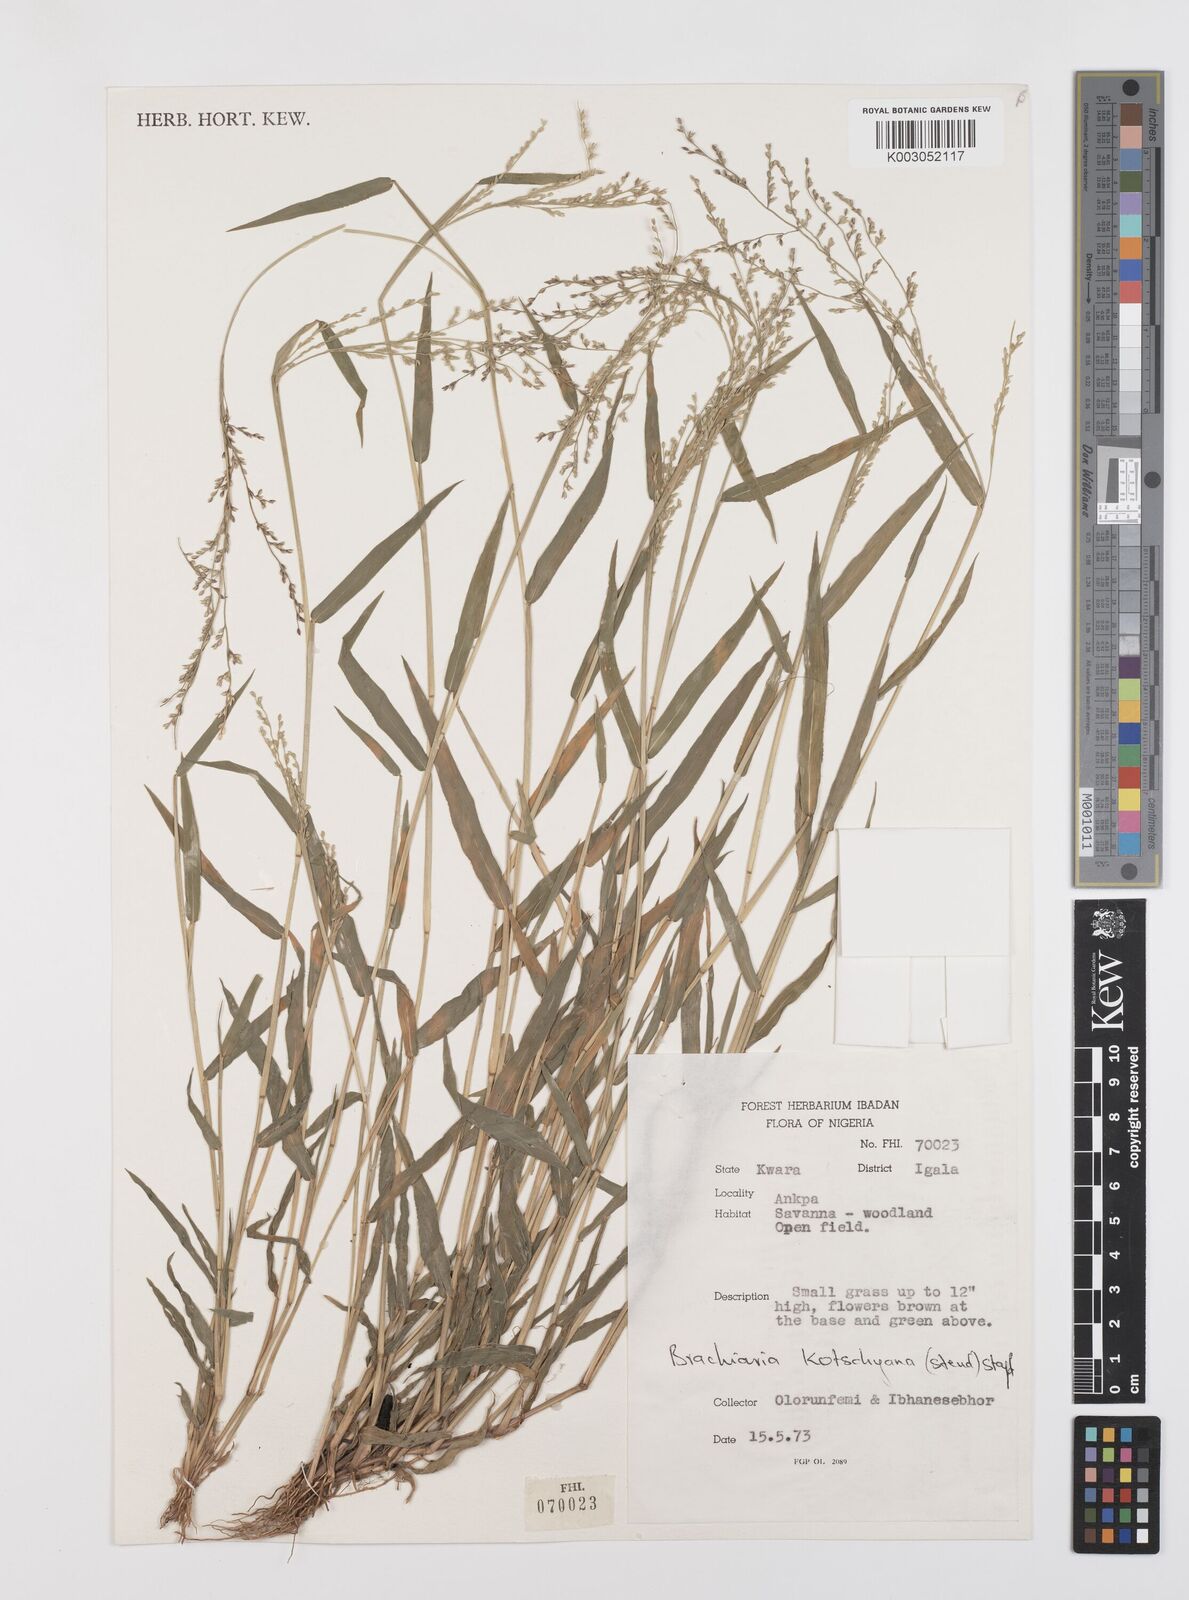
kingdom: Plantae
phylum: Tracheophyta
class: Liliopsida
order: Poales
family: Poaceae
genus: Urochloa
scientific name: Urochloa comata
